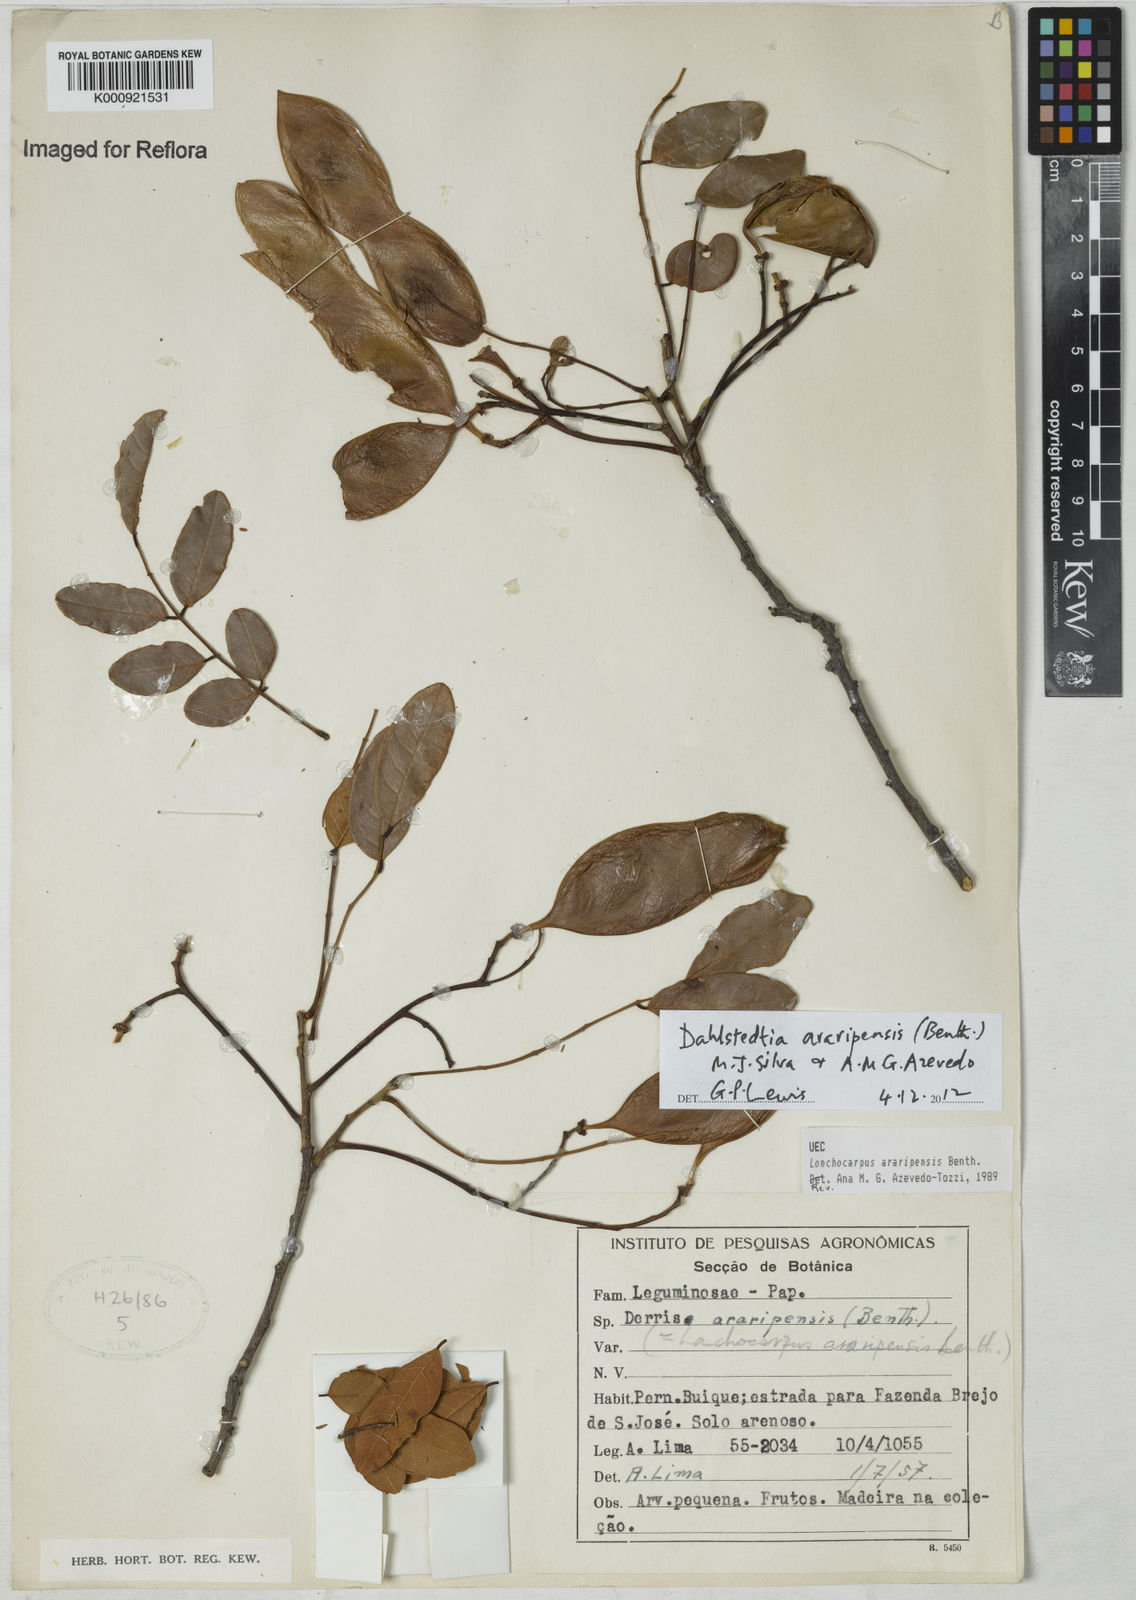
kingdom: Plantae
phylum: Tracheophyta
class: Magnoliopsida
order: Fabales
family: Fabaceae
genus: Dahlstedtia
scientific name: Dahlstedtia araripensis
